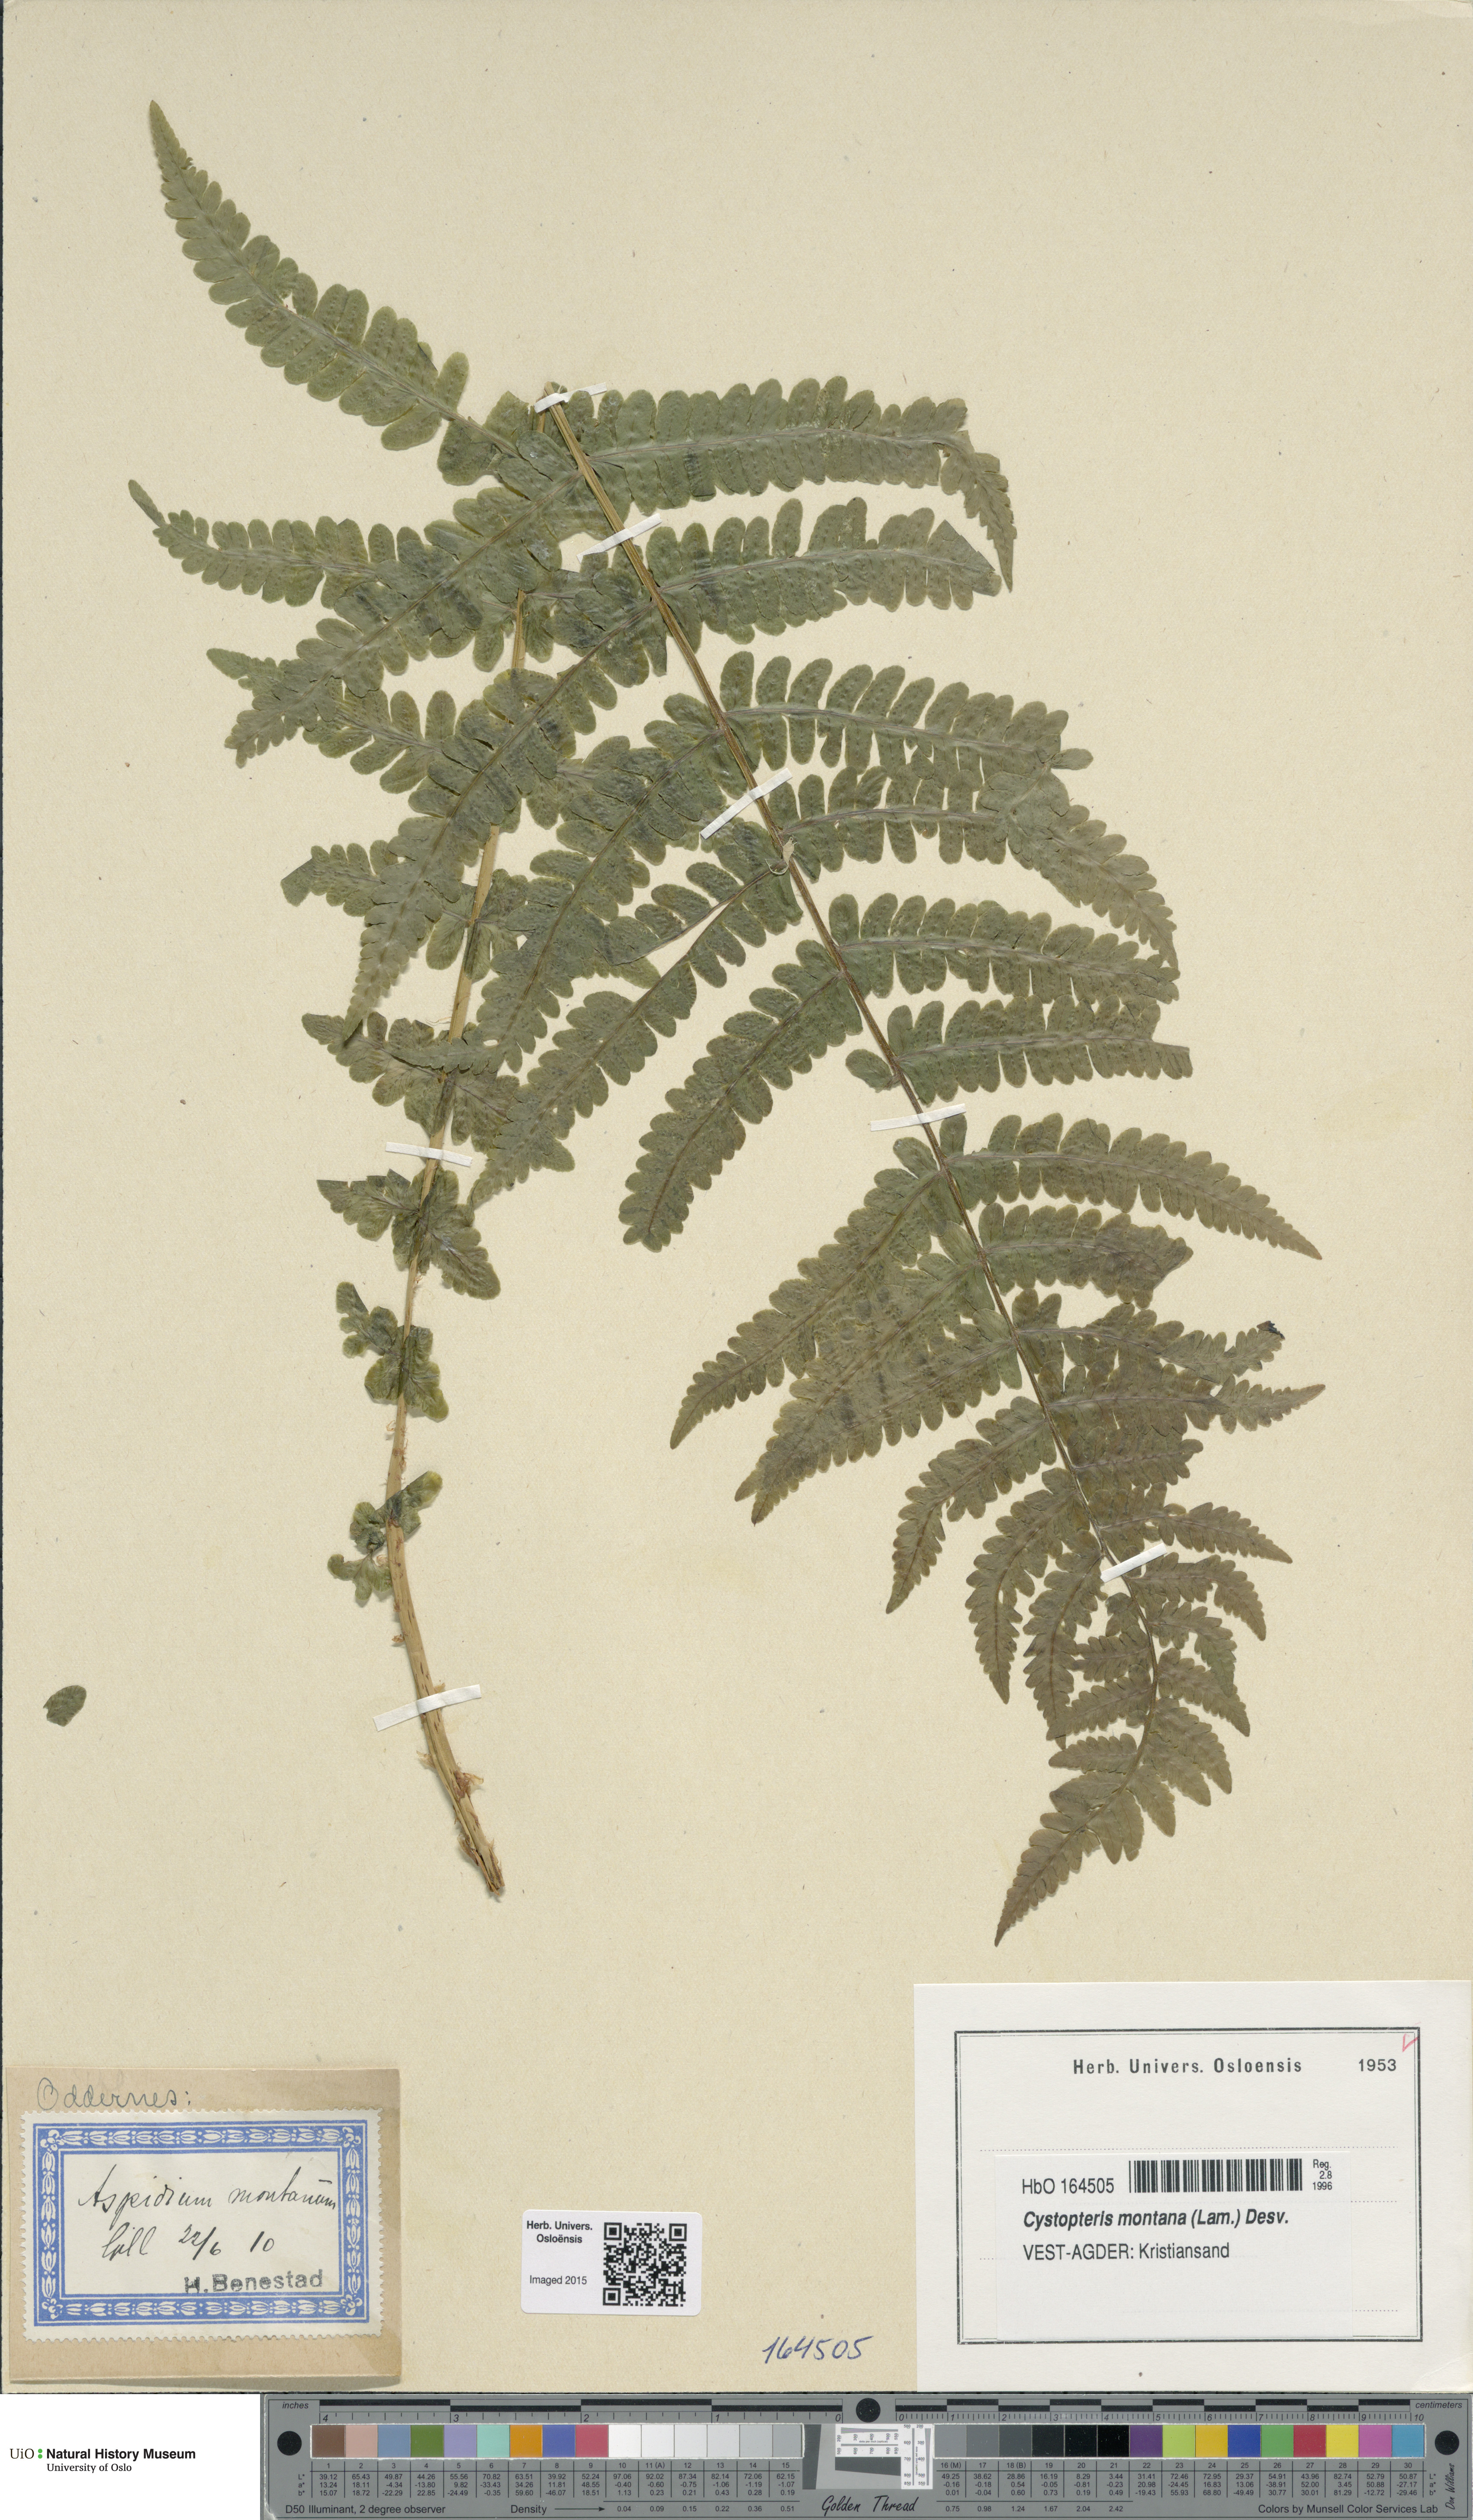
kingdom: Plantae
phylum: Tracheophyta
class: Polypodiopsida
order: Polypodiales
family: Thelypteridaceae
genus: Oreopteris
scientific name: Oreopteris limbosperma
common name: Lemon-scented fern
